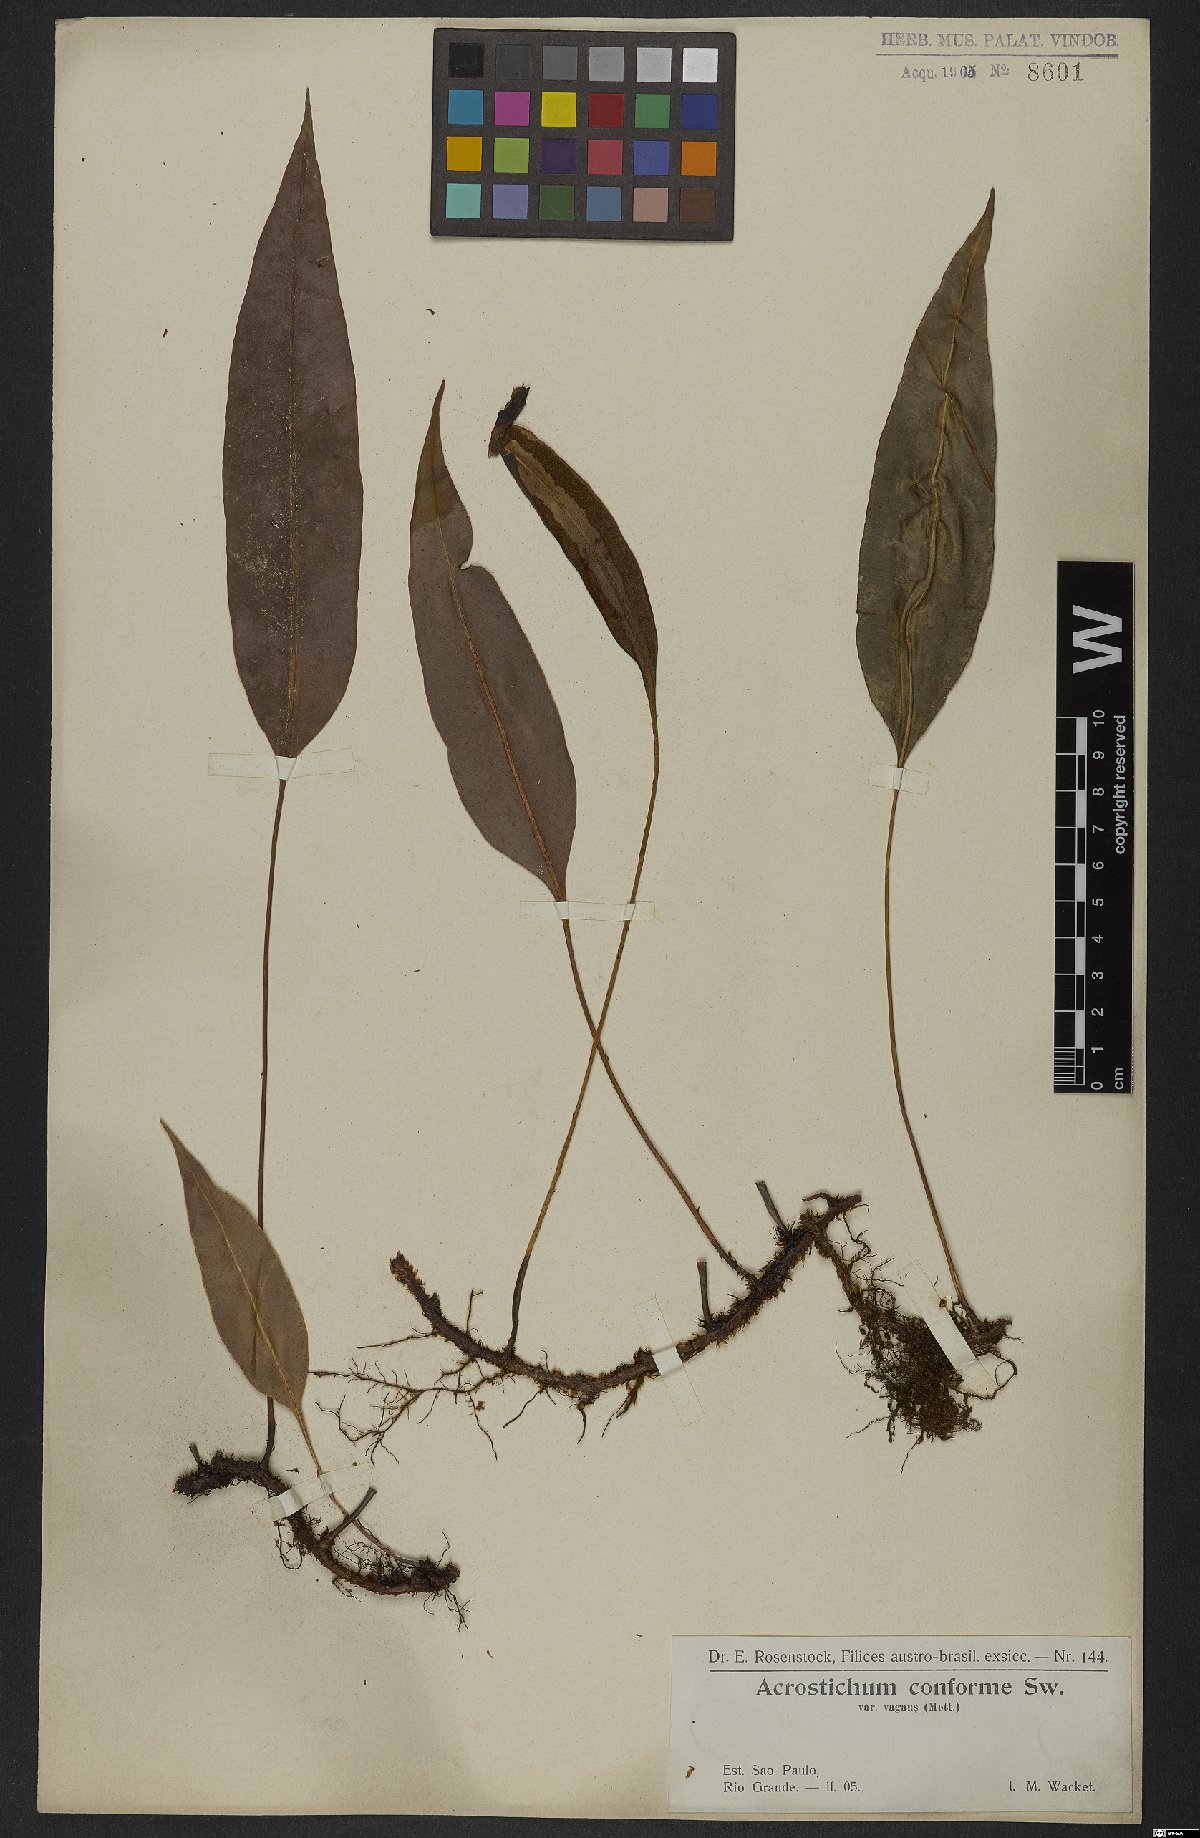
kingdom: Plantae
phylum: Tracheophyta
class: Polypodiopsida
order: Polypodiales
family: Dryopteridaceae
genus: Elaphoglossum
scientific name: Elaphoglossum conforme
